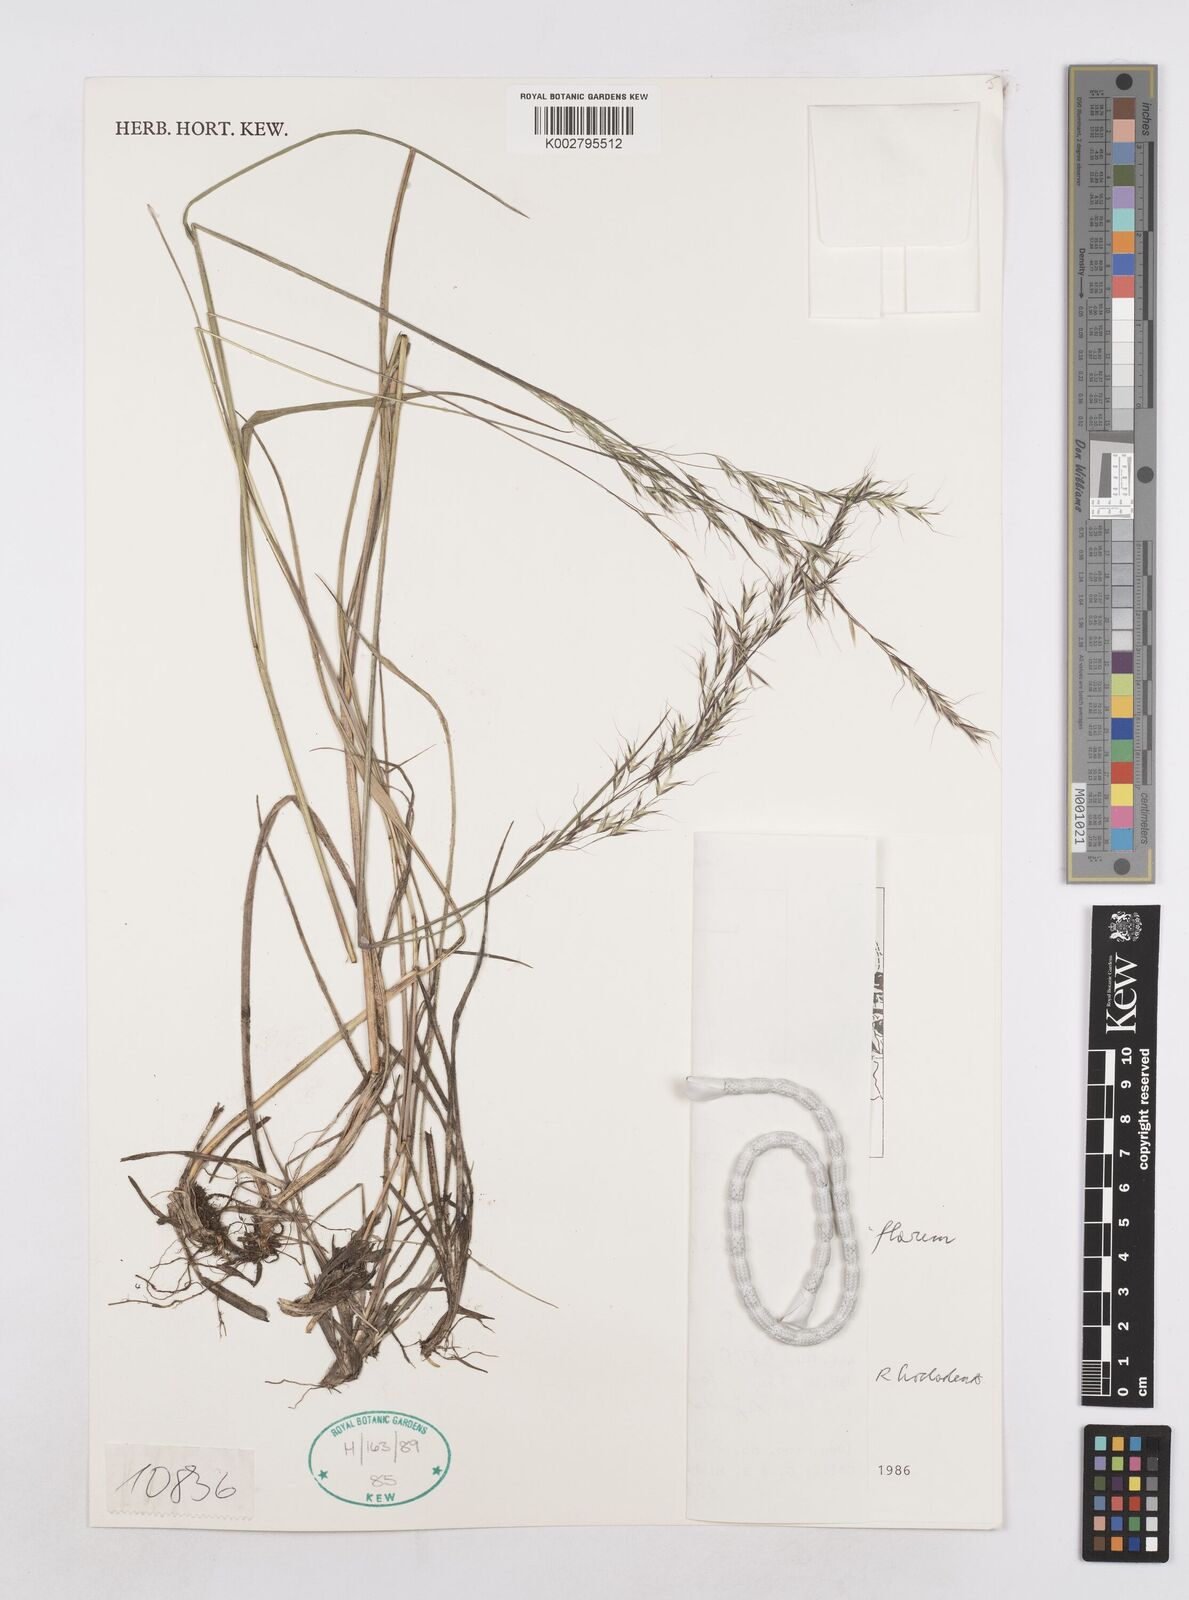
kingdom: Plantae
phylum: Tracheophyta
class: Liliopsida
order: Poales
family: Poaceae
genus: Trisetopsis
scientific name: Trisetopsis junghuhnii
